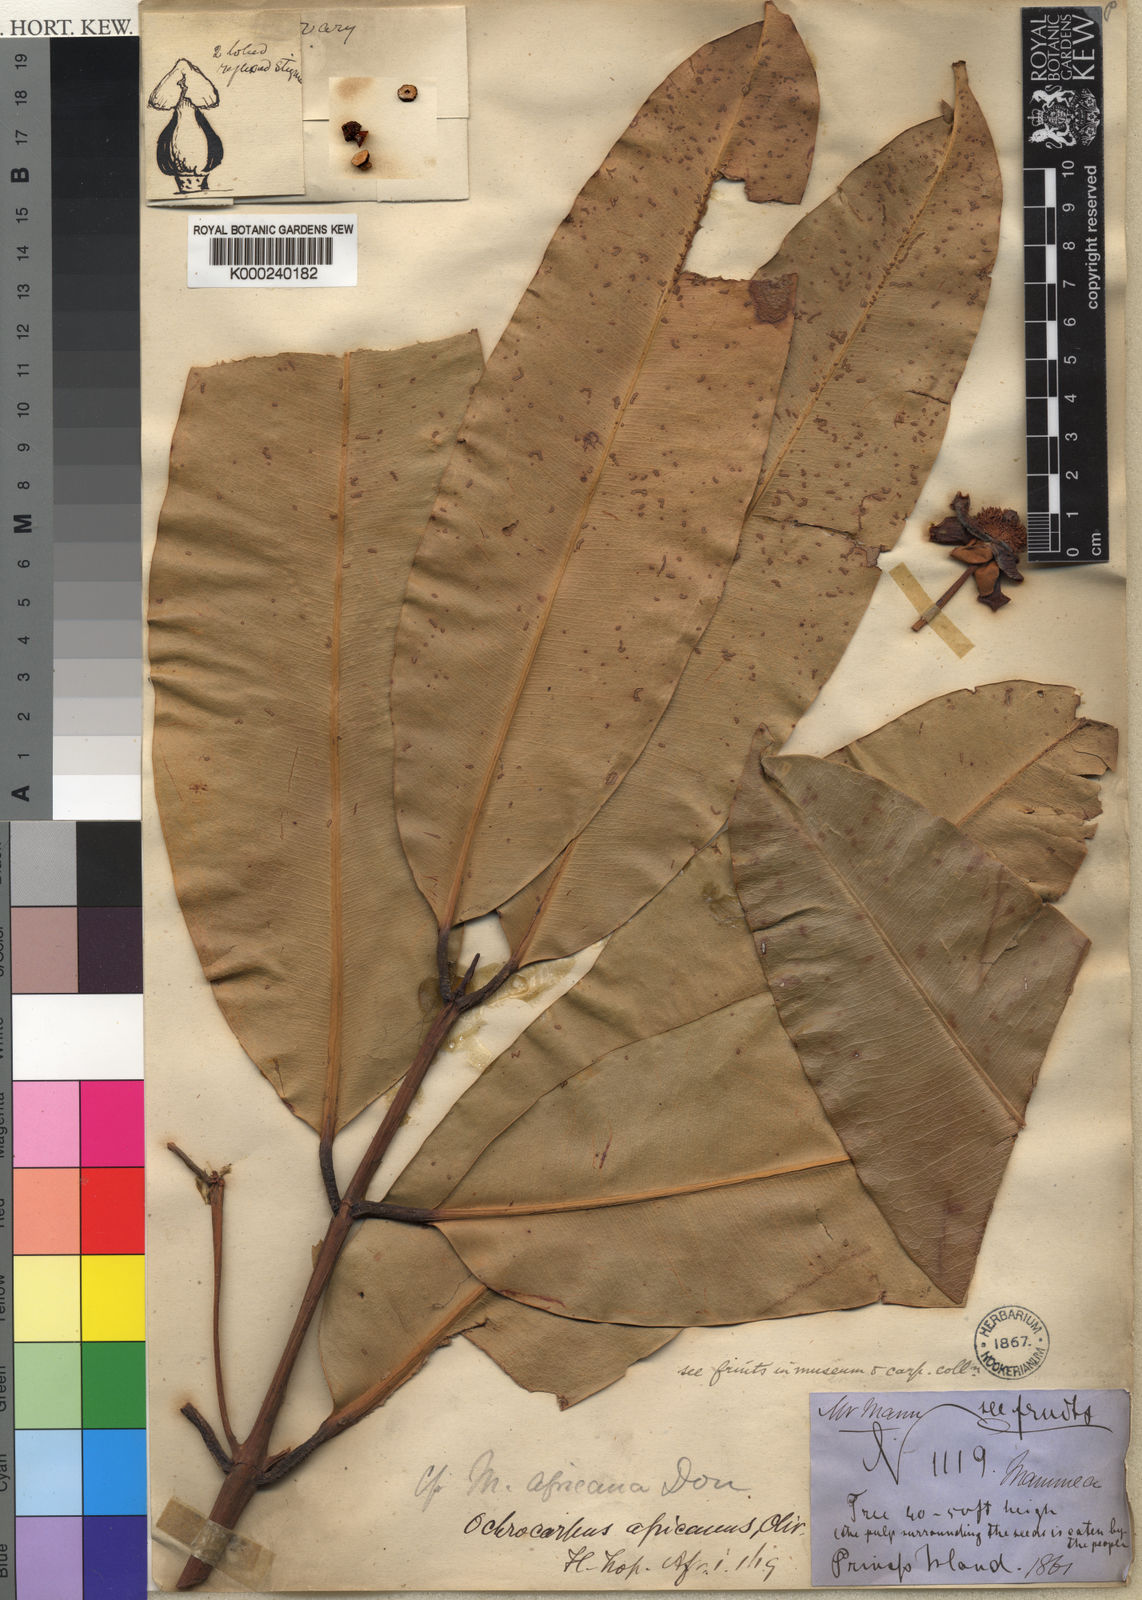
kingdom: Plantae
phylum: Tracheophyta
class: Magnoliopsida
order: Malpighiales
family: Calophyllaceae
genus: Mammea
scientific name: Mammea
